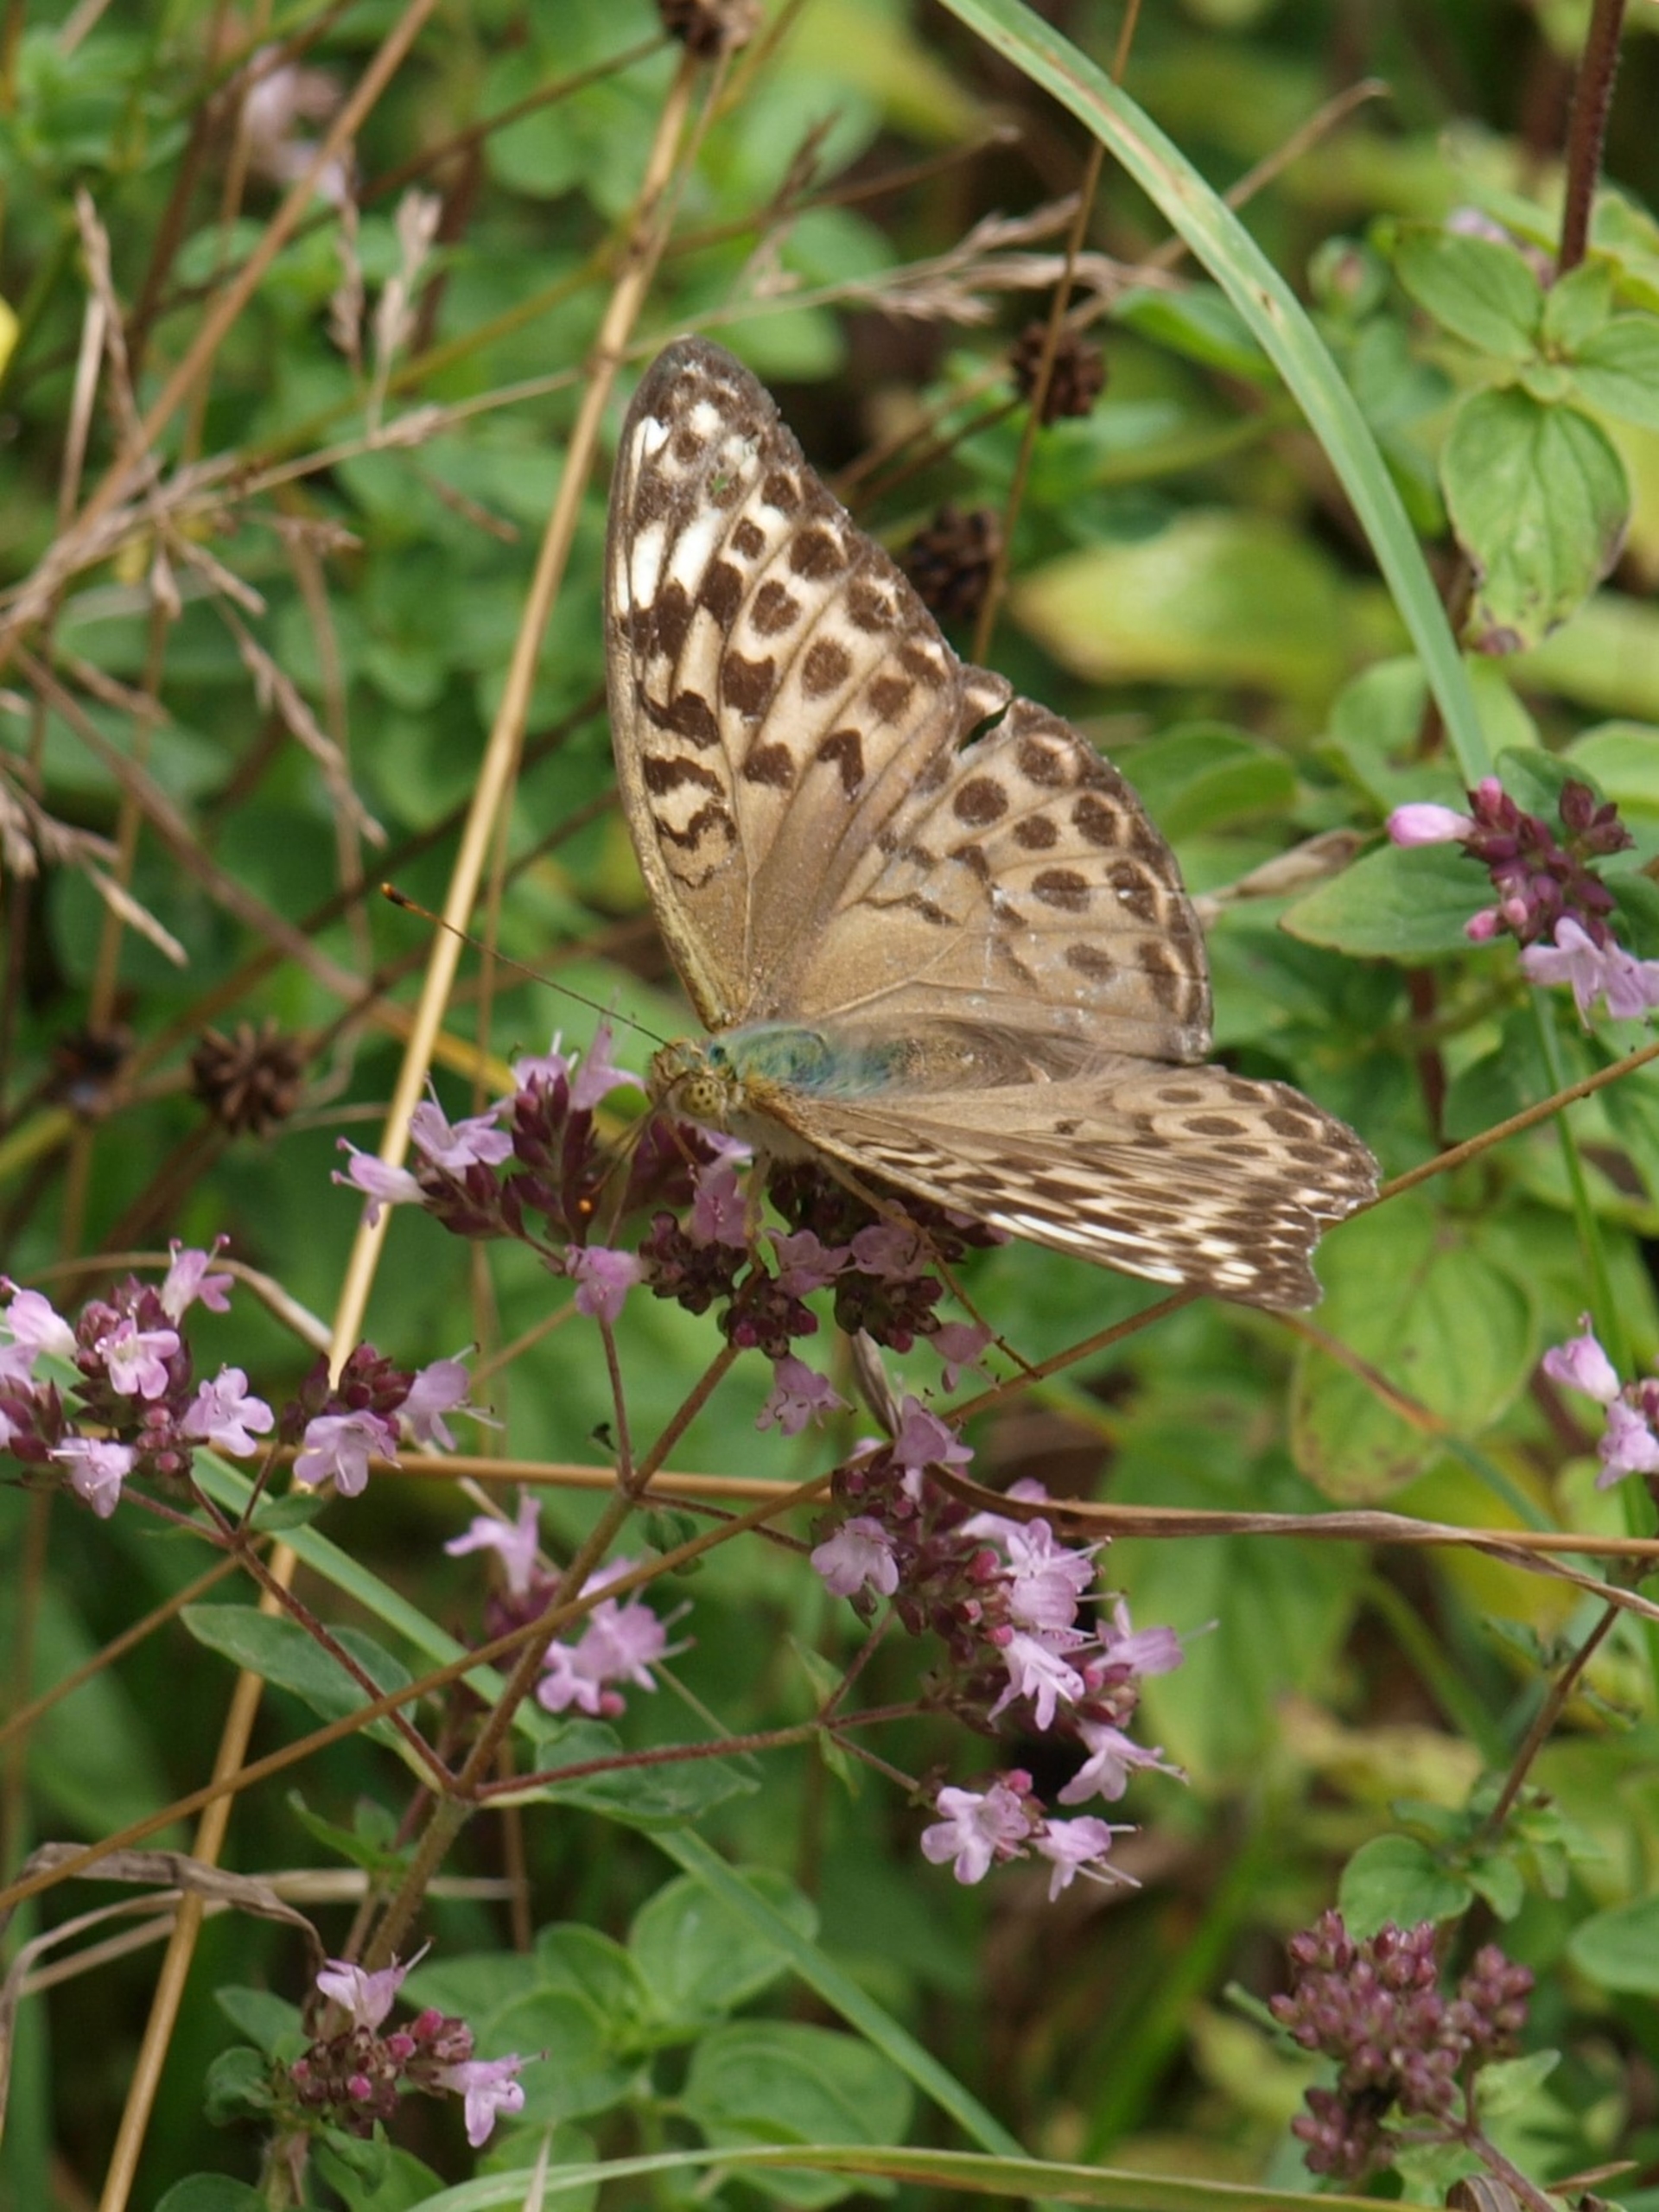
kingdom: Animalia
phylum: Arthropoda
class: Insecta
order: Lepidoptera
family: Nymphalidae
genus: Argynnis
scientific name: Argynnis paphia
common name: Kejserkåbe
